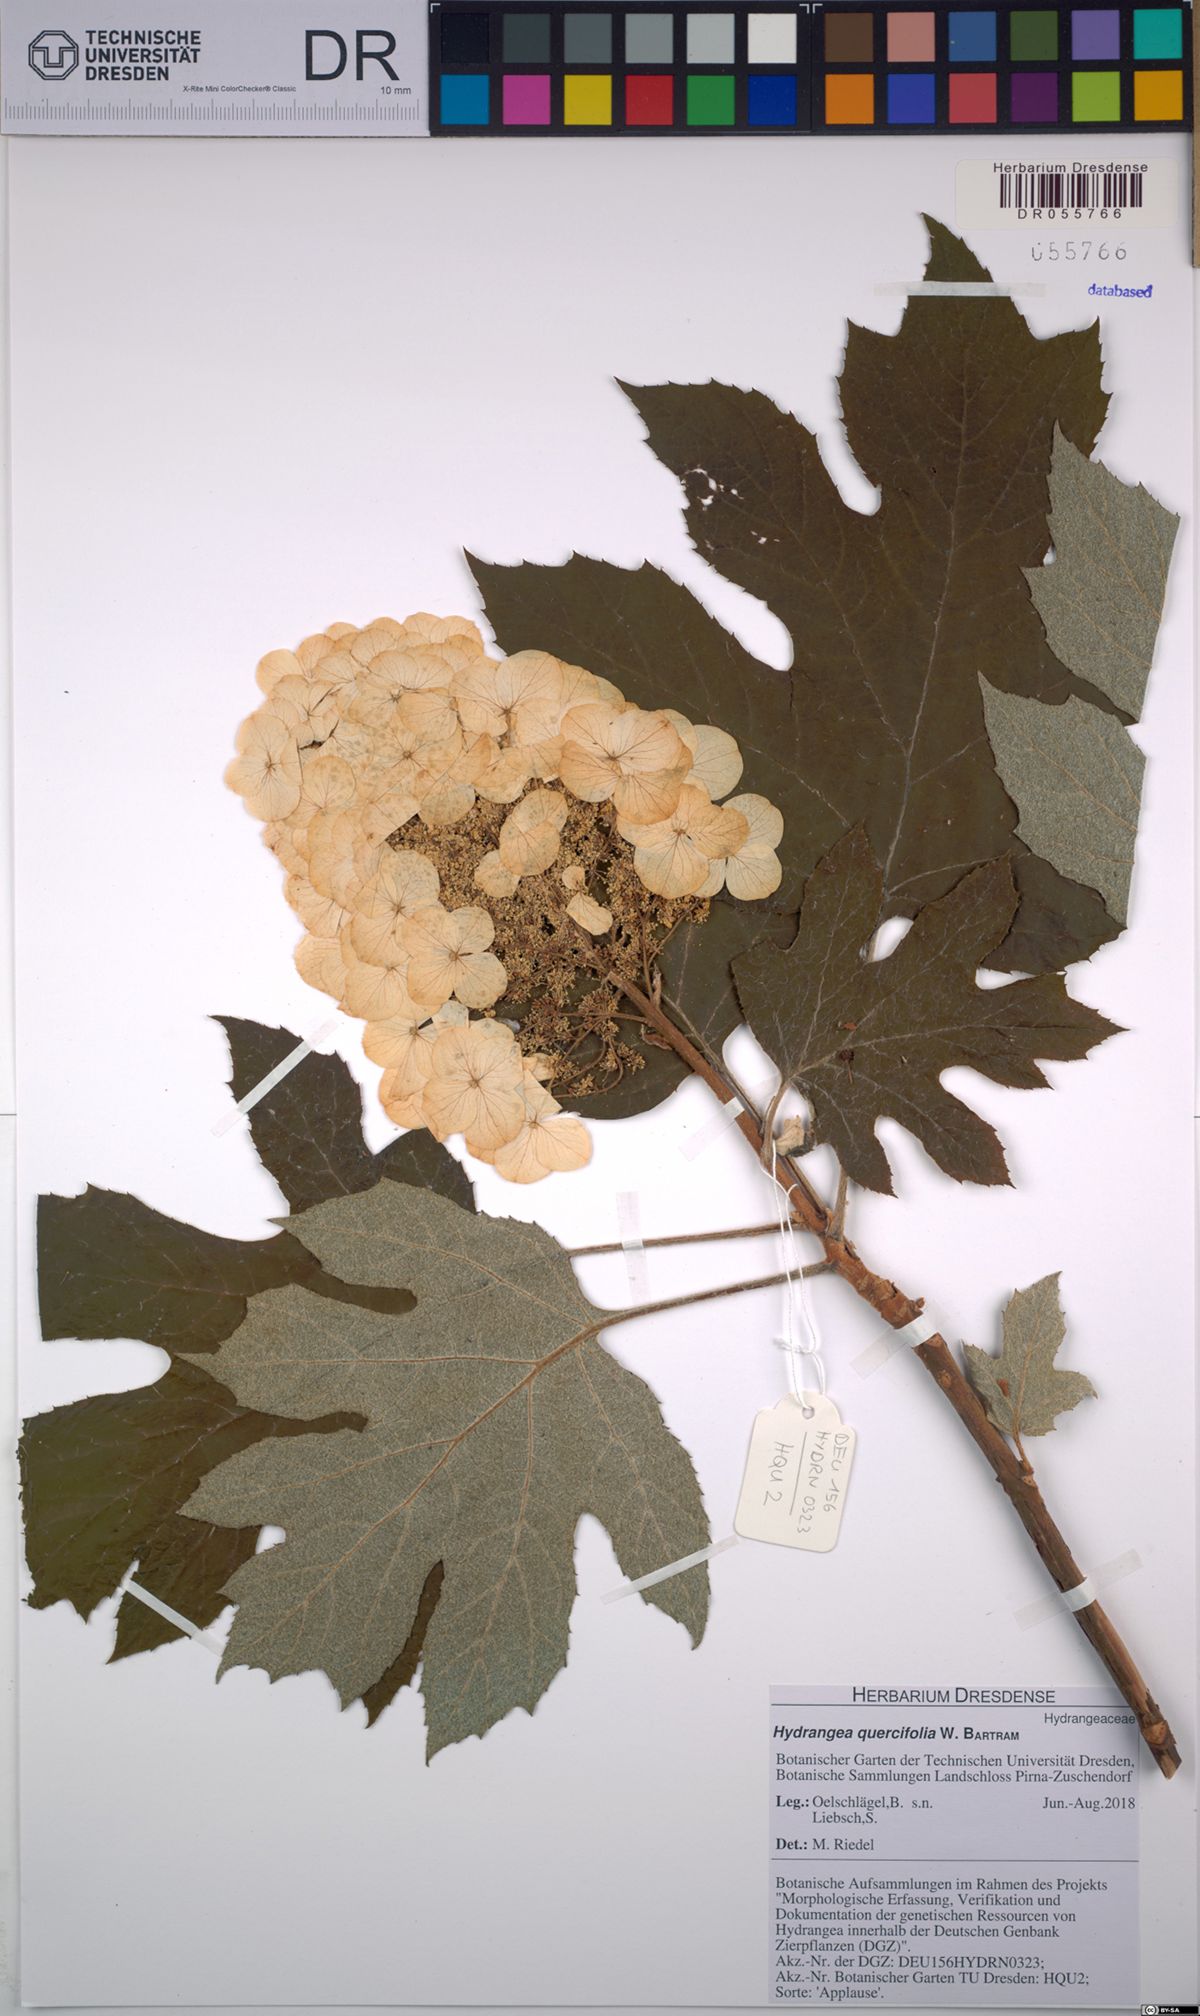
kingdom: Plantae
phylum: Tracheophyta
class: Magnoliopsida
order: Cornales
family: Hydrangeaceae
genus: Hydrangea
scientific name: Hydrangea quercifolia
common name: Oak-leaf hydrangea
